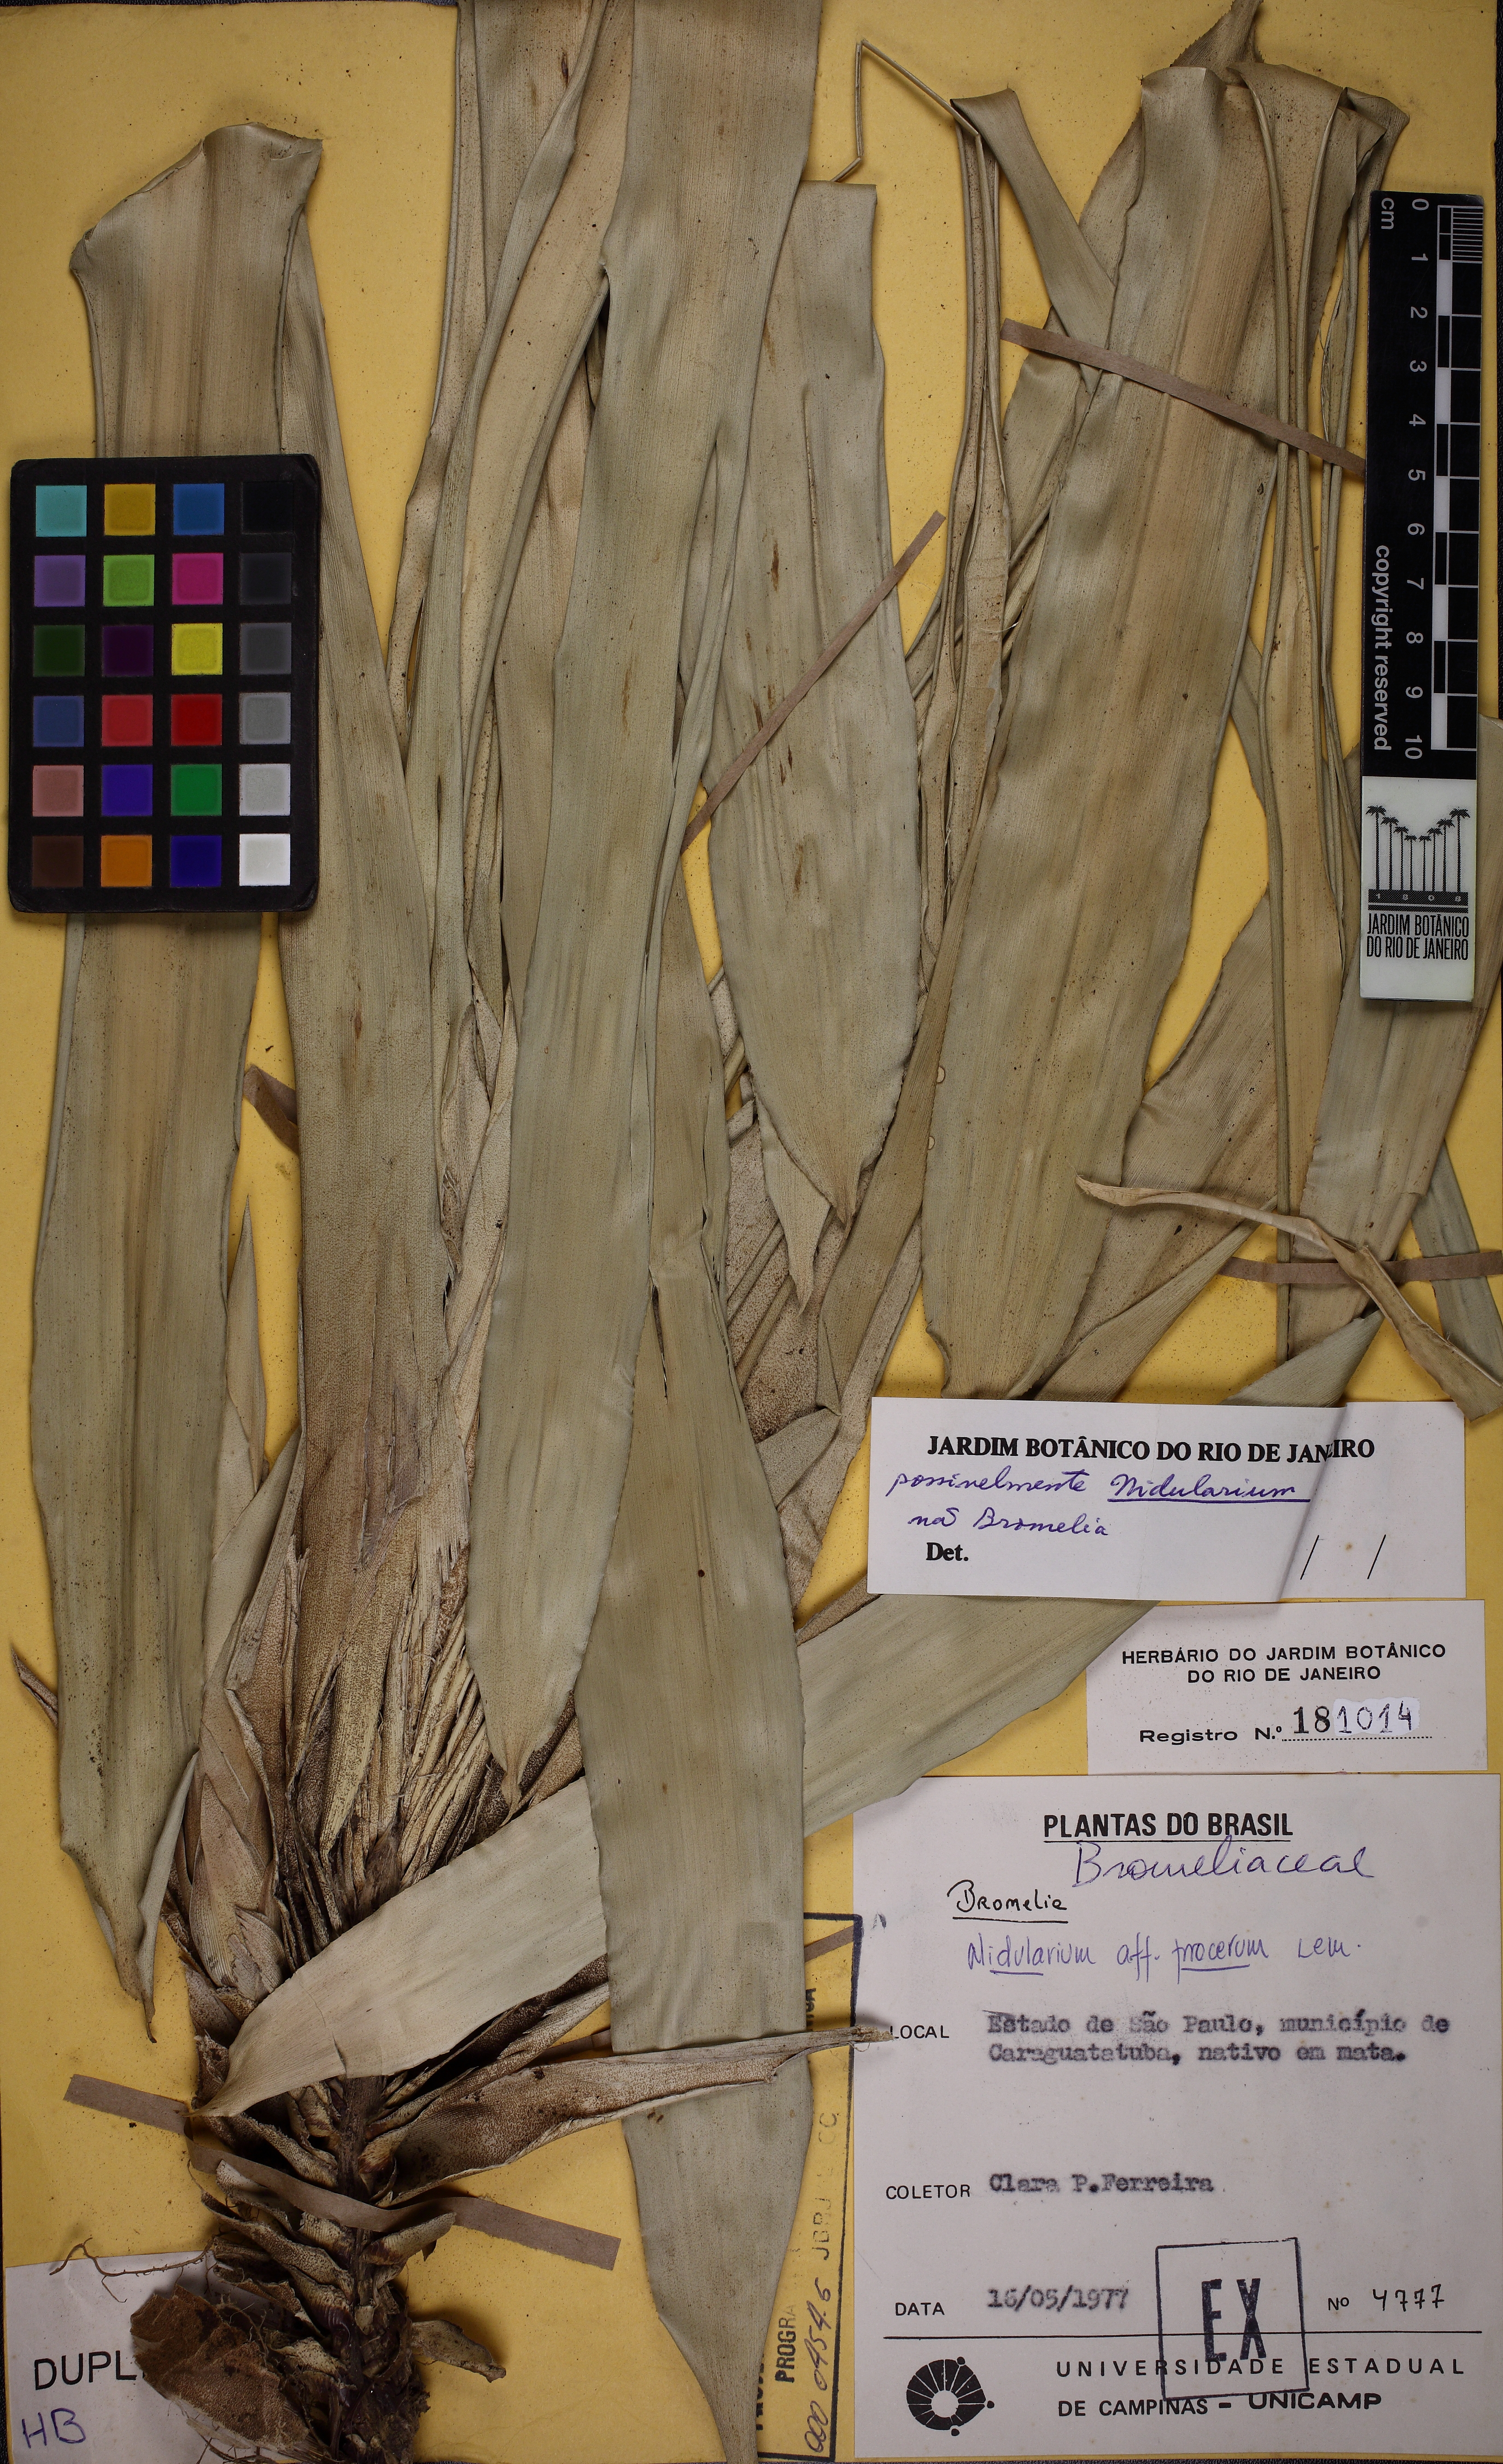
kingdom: Plantae
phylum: Tracheophyta
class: Liliopsida
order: Poales
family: Bromeliaceae
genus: Nidularium
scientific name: Nidularium procerum
